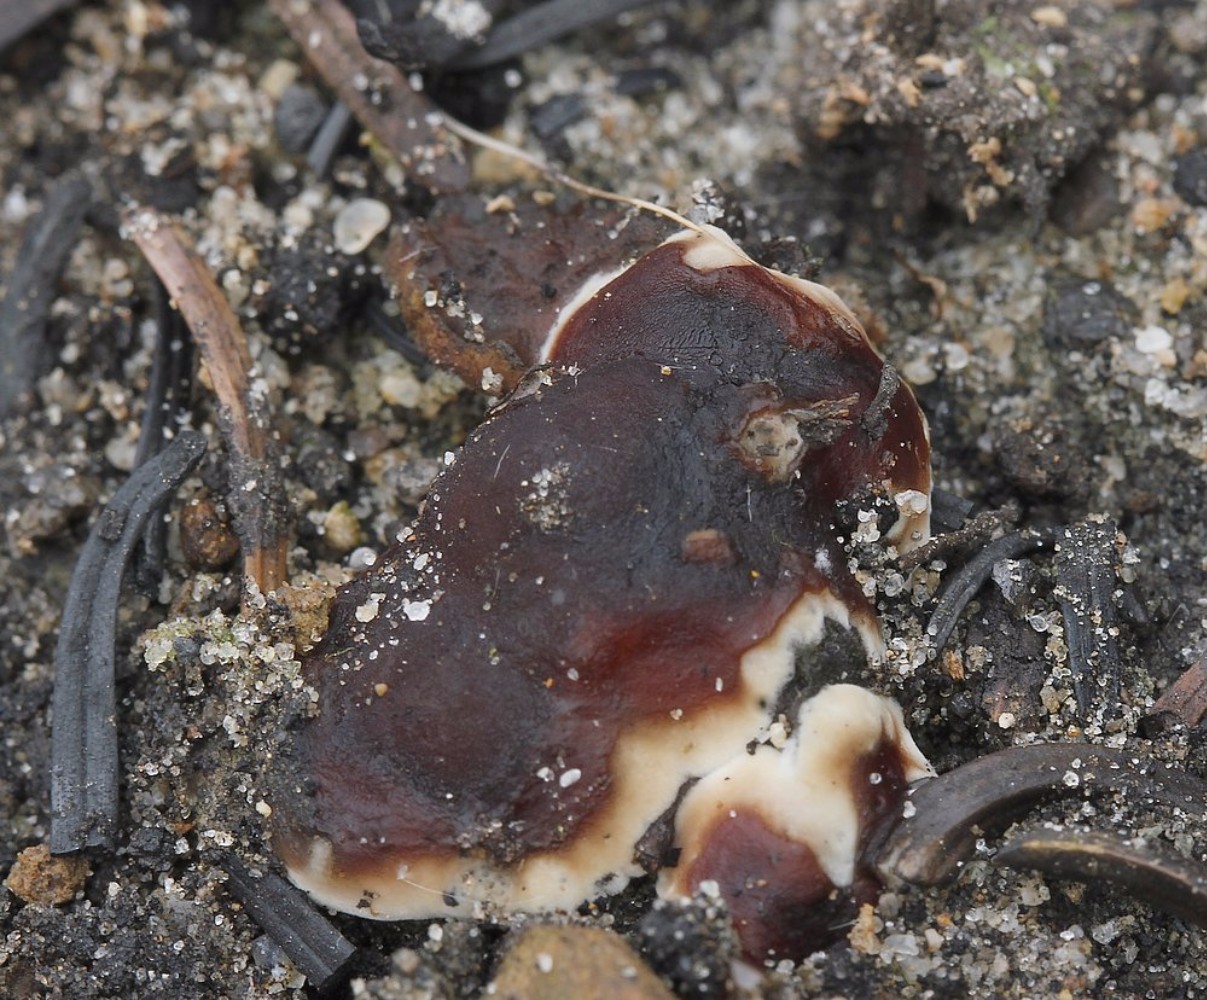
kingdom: Fungi
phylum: Ascomycota
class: Pezizomycetes
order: Pezizales
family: Rhizinaceae
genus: Rhizina
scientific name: Rhizina undulata
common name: rodmorkel
